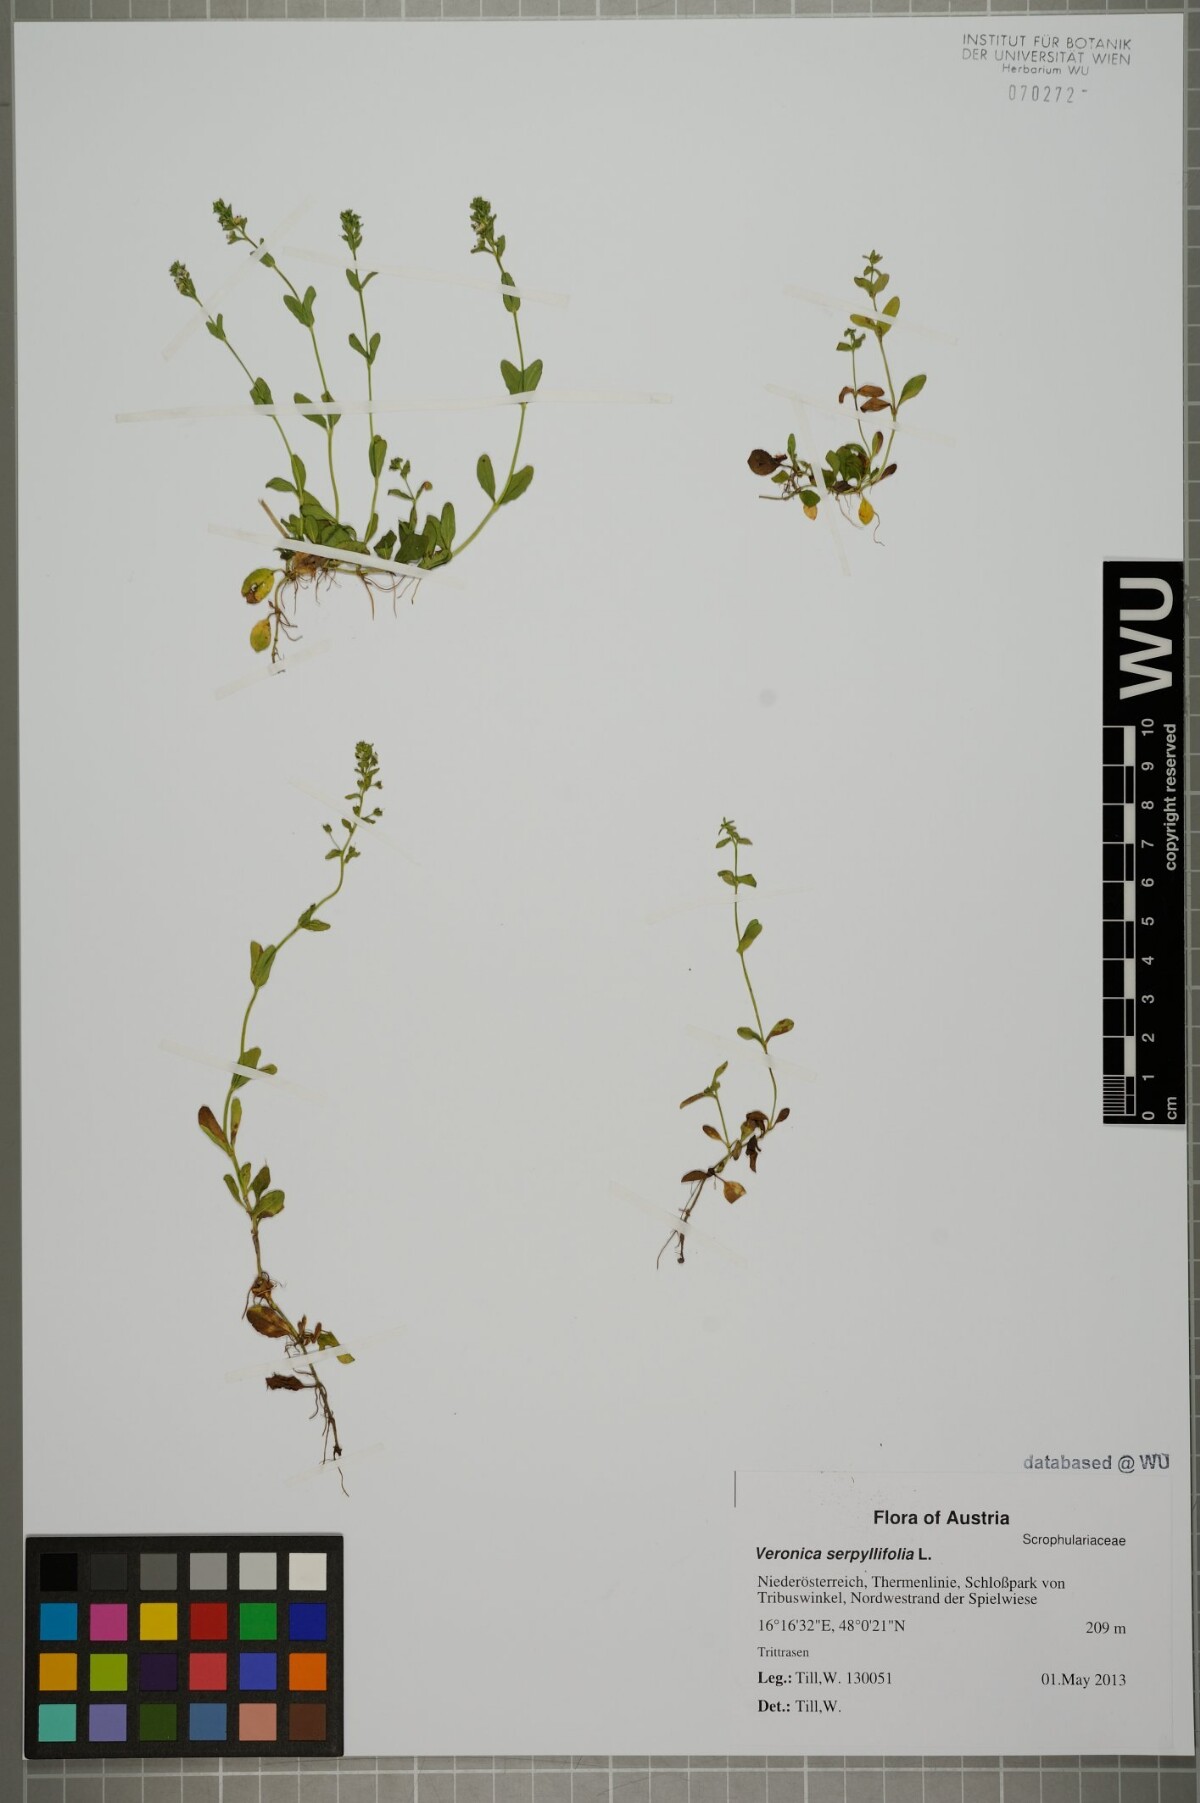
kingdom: Plantae
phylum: Tracheophyta
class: Magnoliopsida
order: Lamiales
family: Plantaginaceae
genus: Veronica
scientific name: Veronica serpyllifolia
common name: Thyme-leaved speedwell
